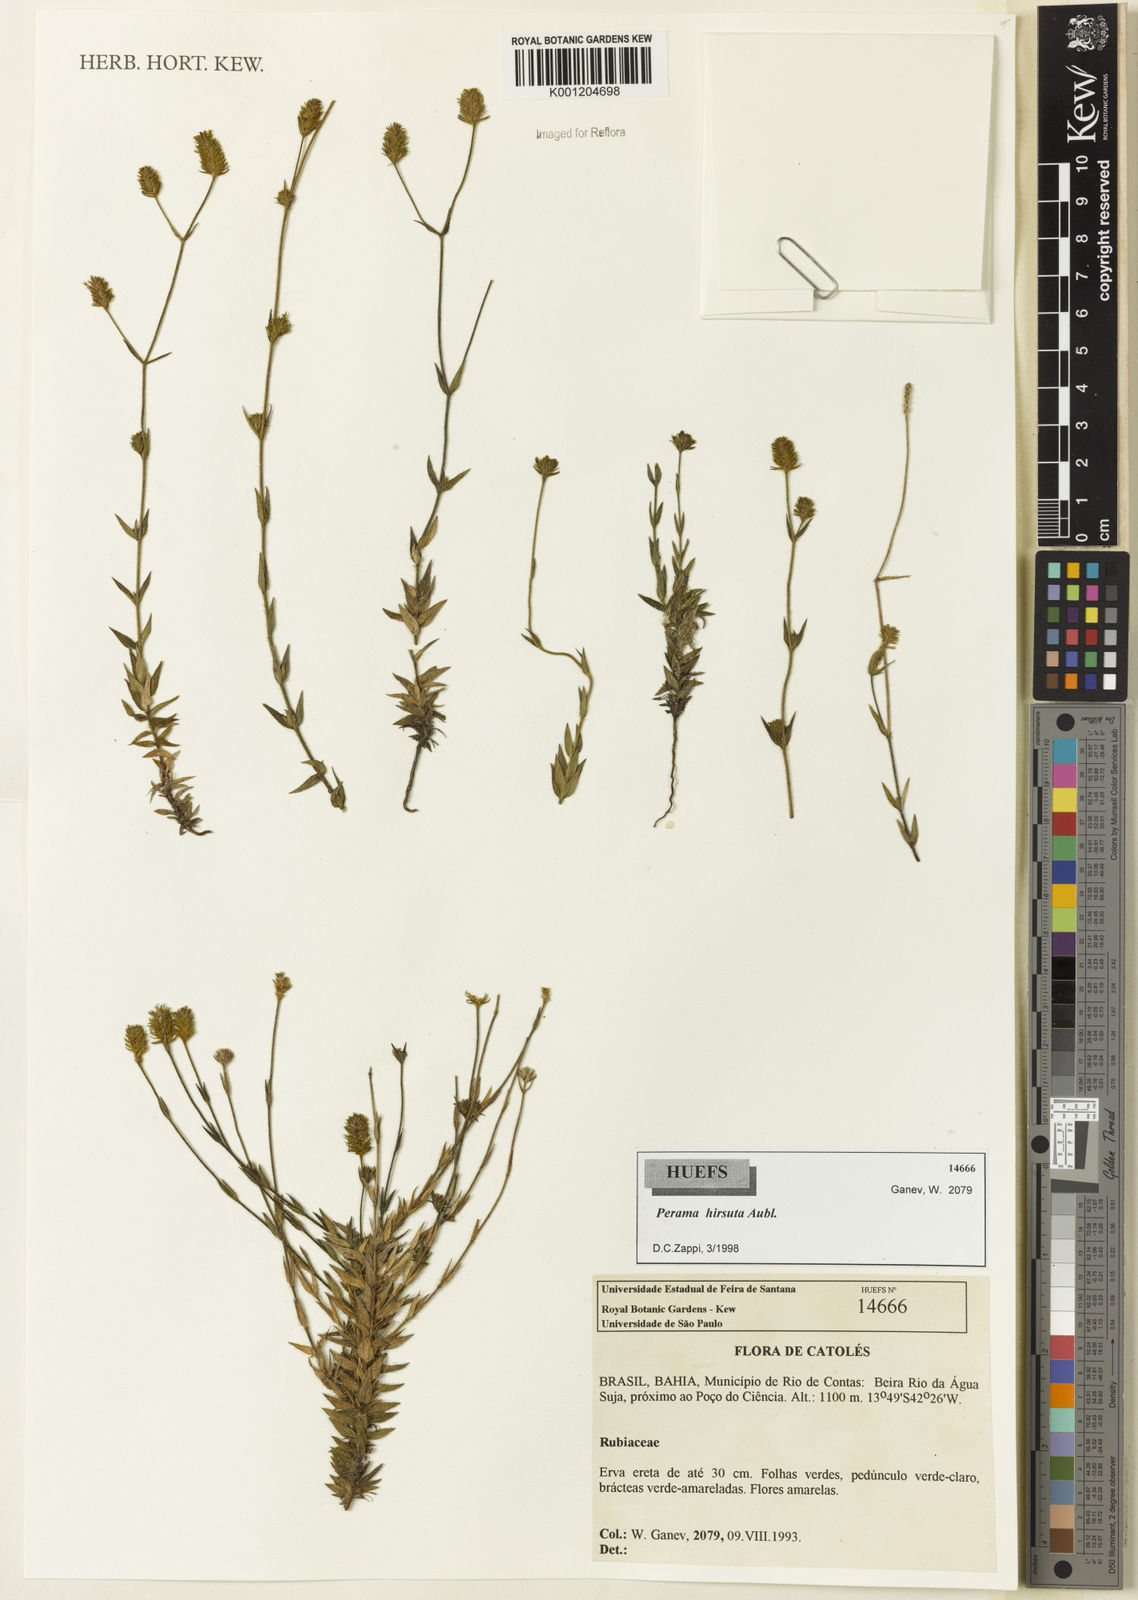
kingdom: Plantae
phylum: Tracheophyta
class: Magnoliopsida
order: Gentianales
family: Rubiaceae
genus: Perama
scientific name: Perama hirsuta
